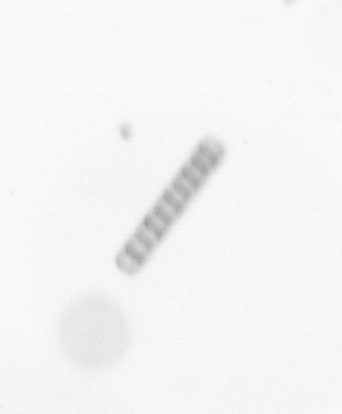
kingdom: Chromista
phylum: Ochrophyta
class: Bacillariophyceae
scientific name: Bacillariophyceae
